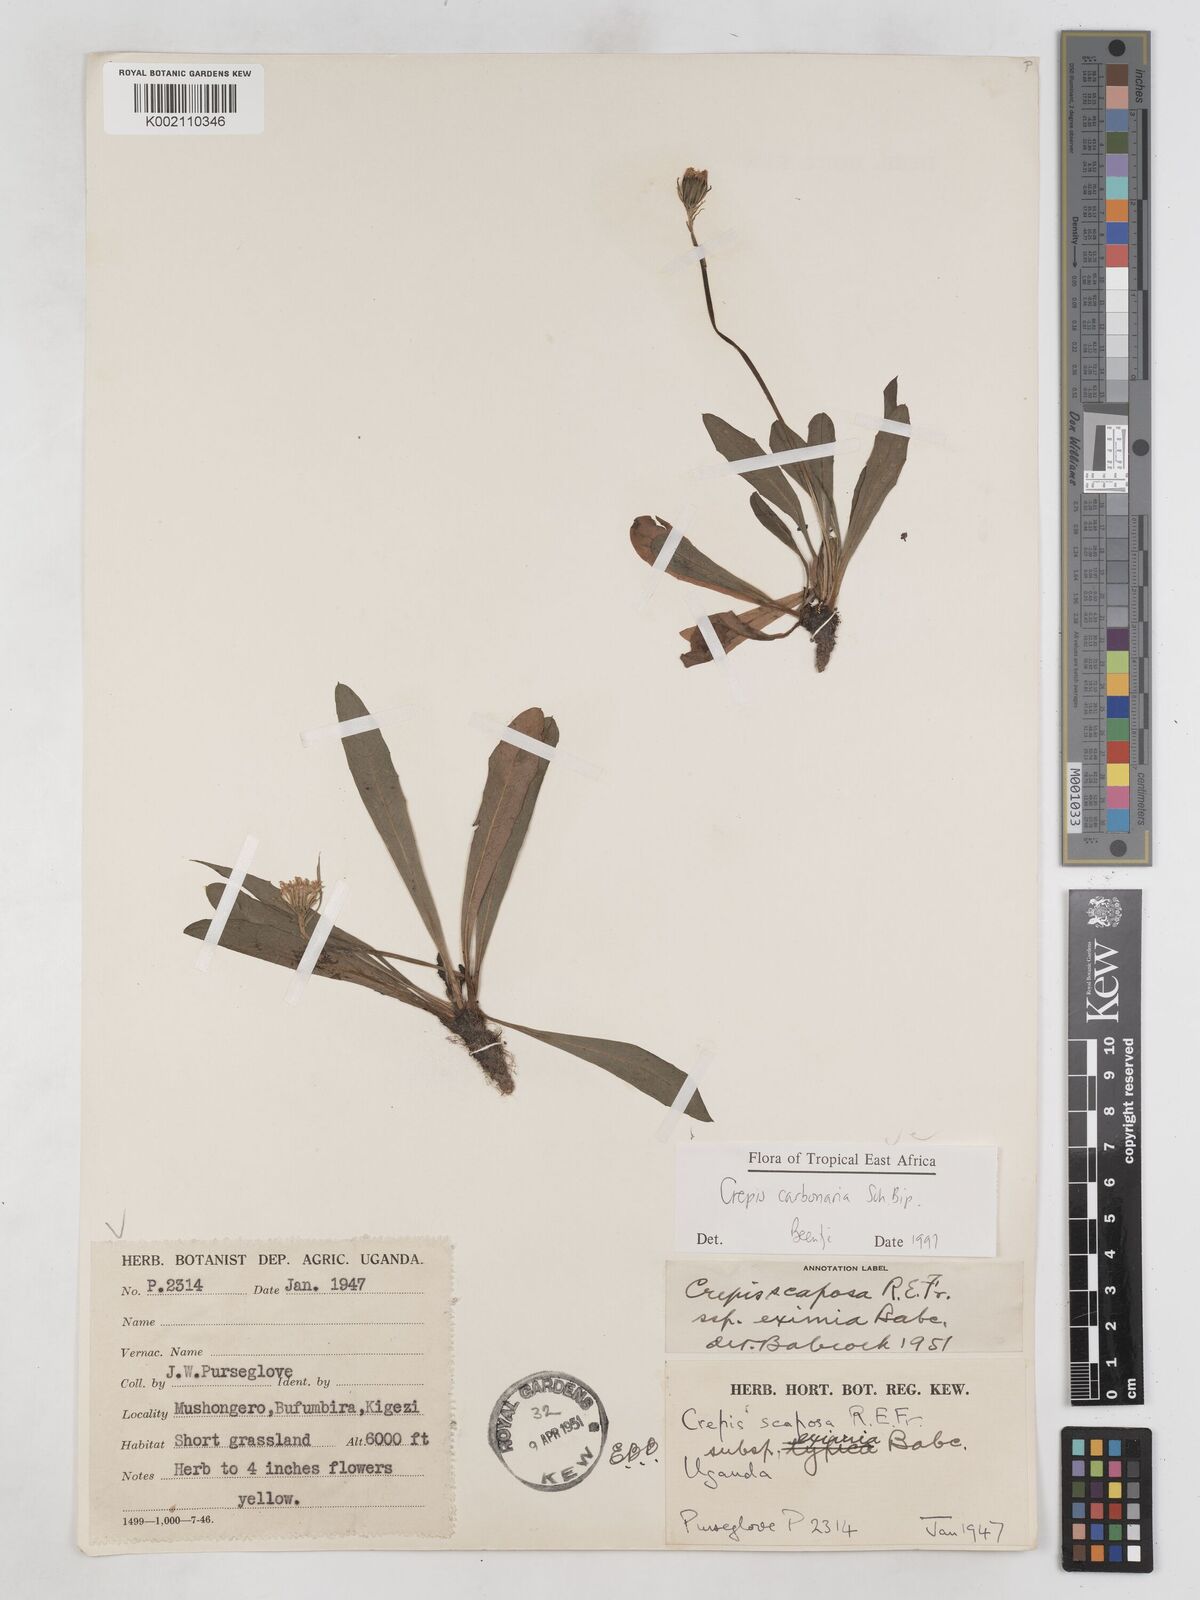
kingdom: Plantae
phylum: Tracheophyta
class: Magnoliopsida
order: Asterales
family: Asteraceae
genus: Crepis
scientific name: Crepis carbonaria
